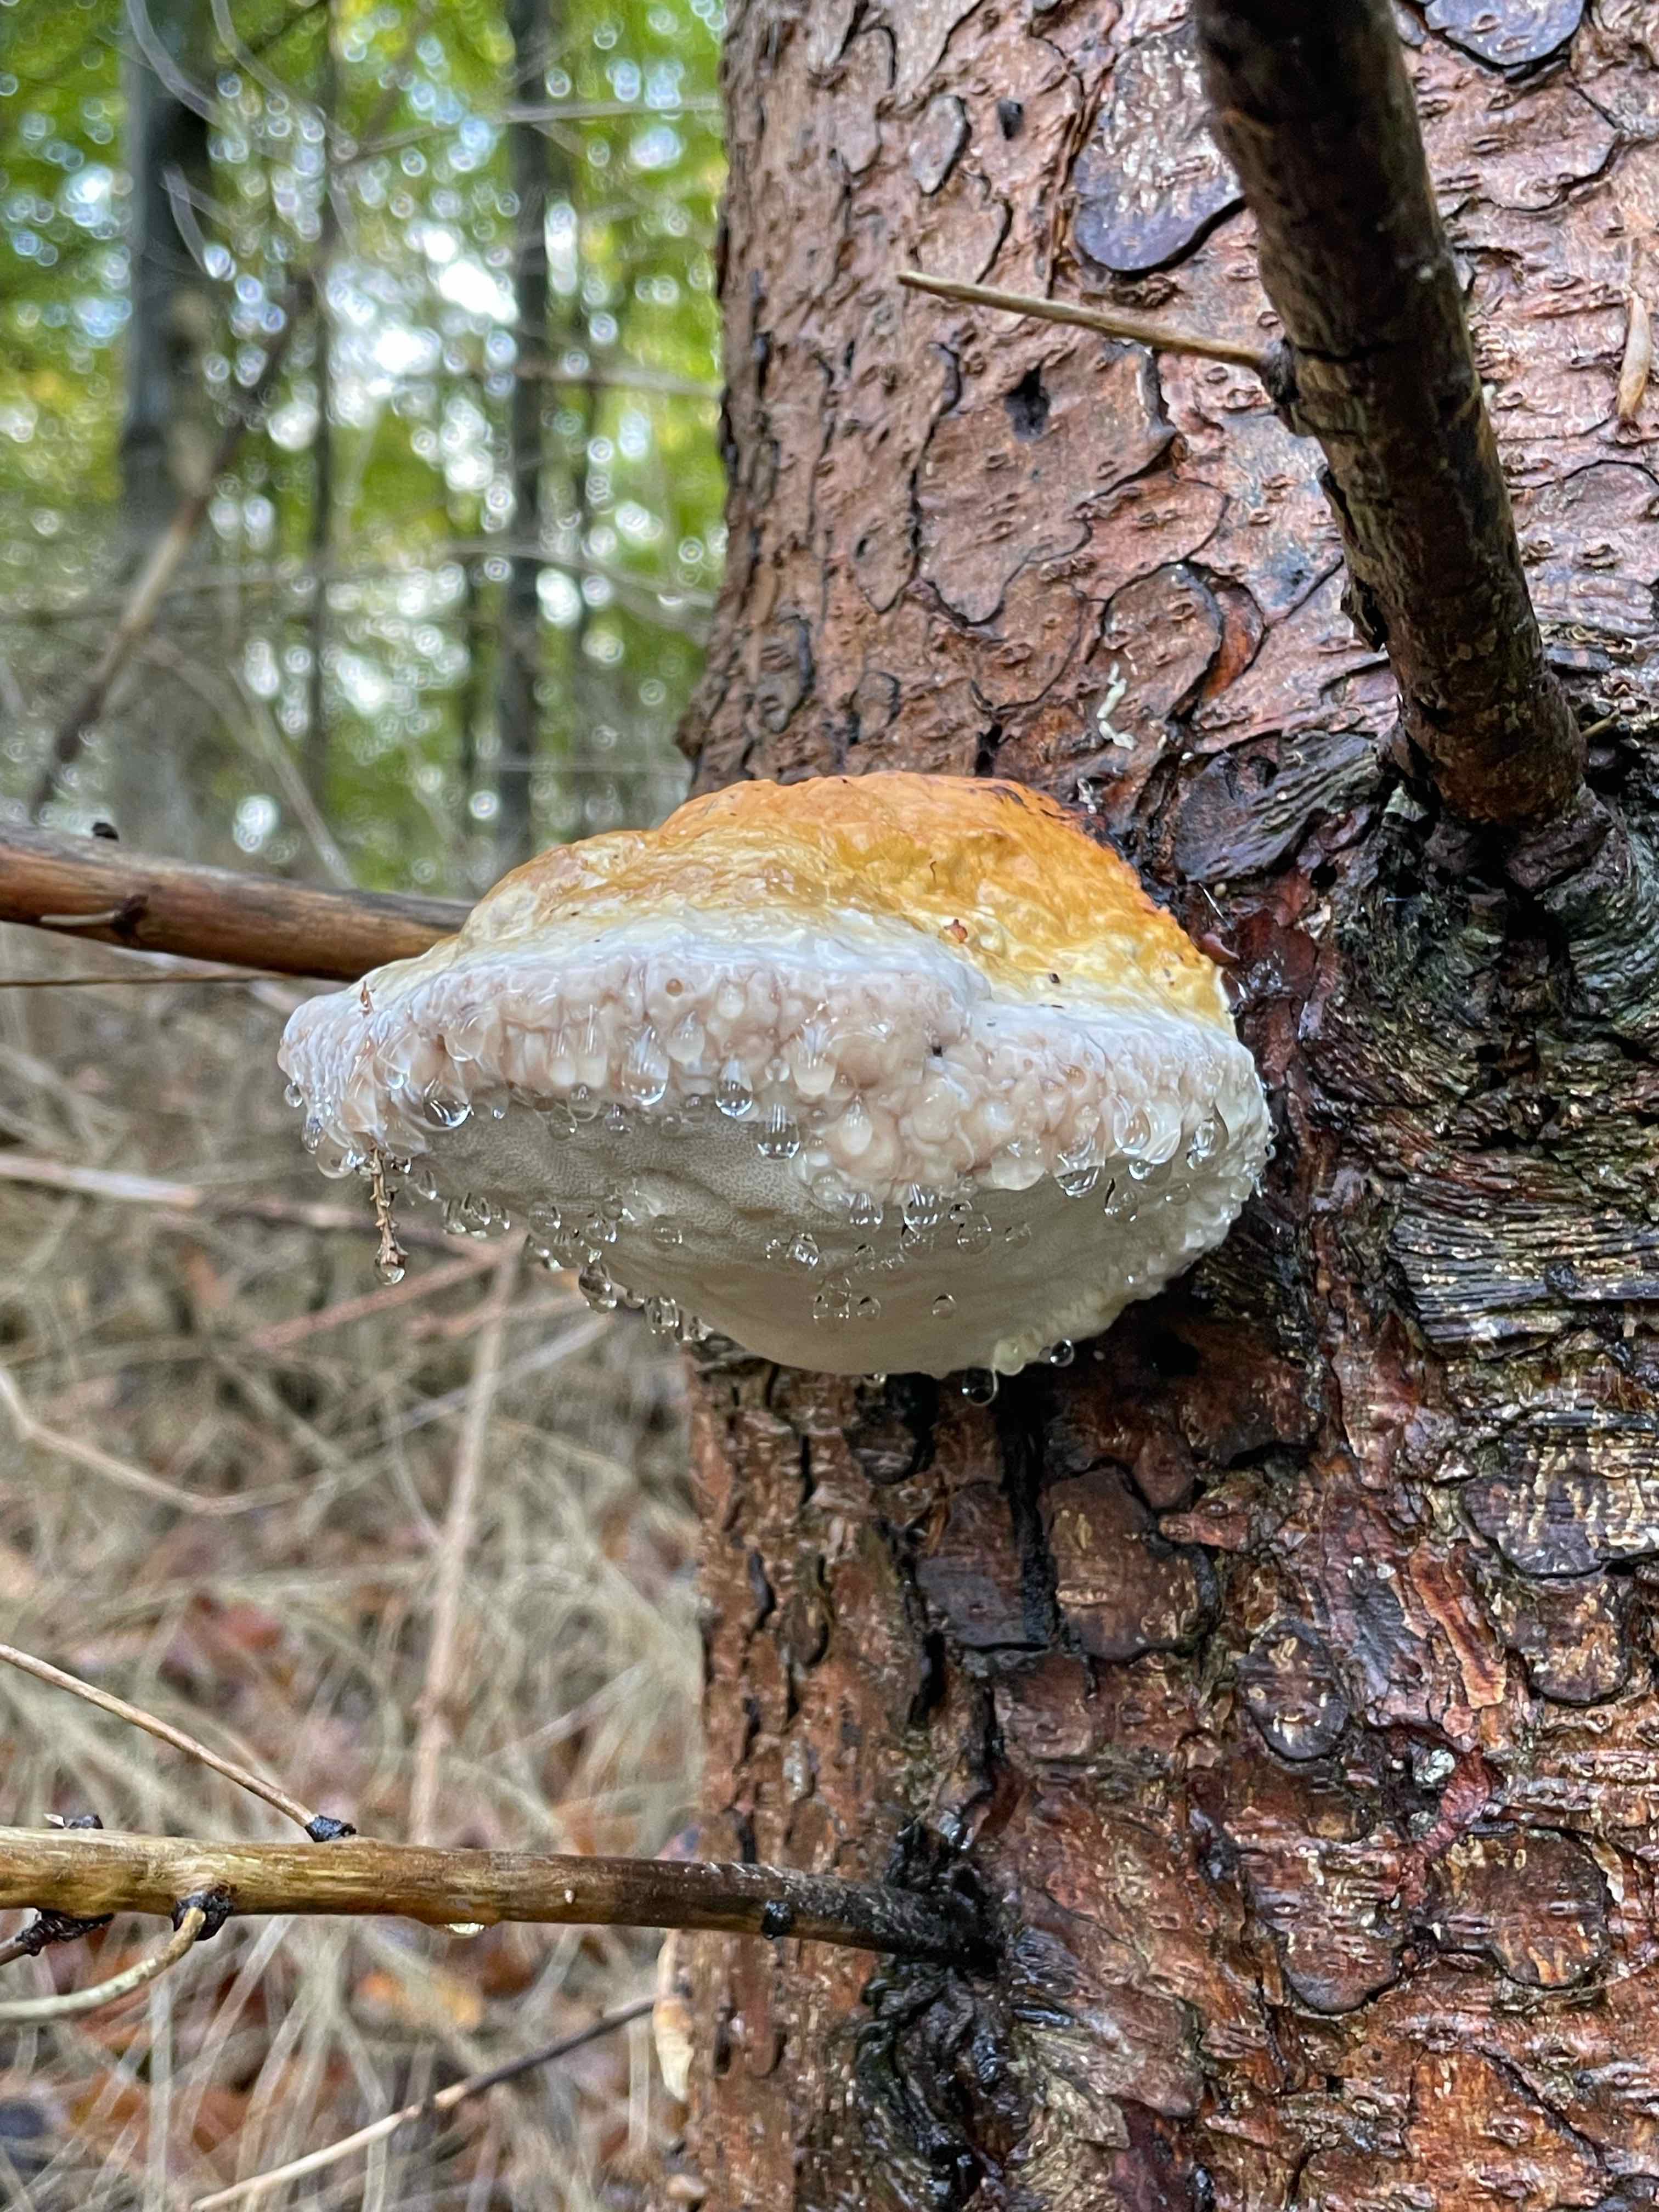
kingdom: Fungi
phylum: Basidiomycota
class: Agaricomycetes
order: Polyporales
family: Fomitopsidaceae
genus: Fomitopsis
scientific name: Fomitopsis pinicola
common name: randbæltet hovporesvamp
